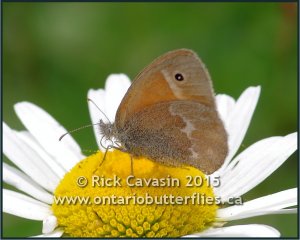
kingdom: Animalia
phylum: Arthropoda
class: Insecta
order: Lepidoptera
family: Nymphalidae
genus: Coenonympha
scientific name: Coenonympha tullia
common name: Large Heath
